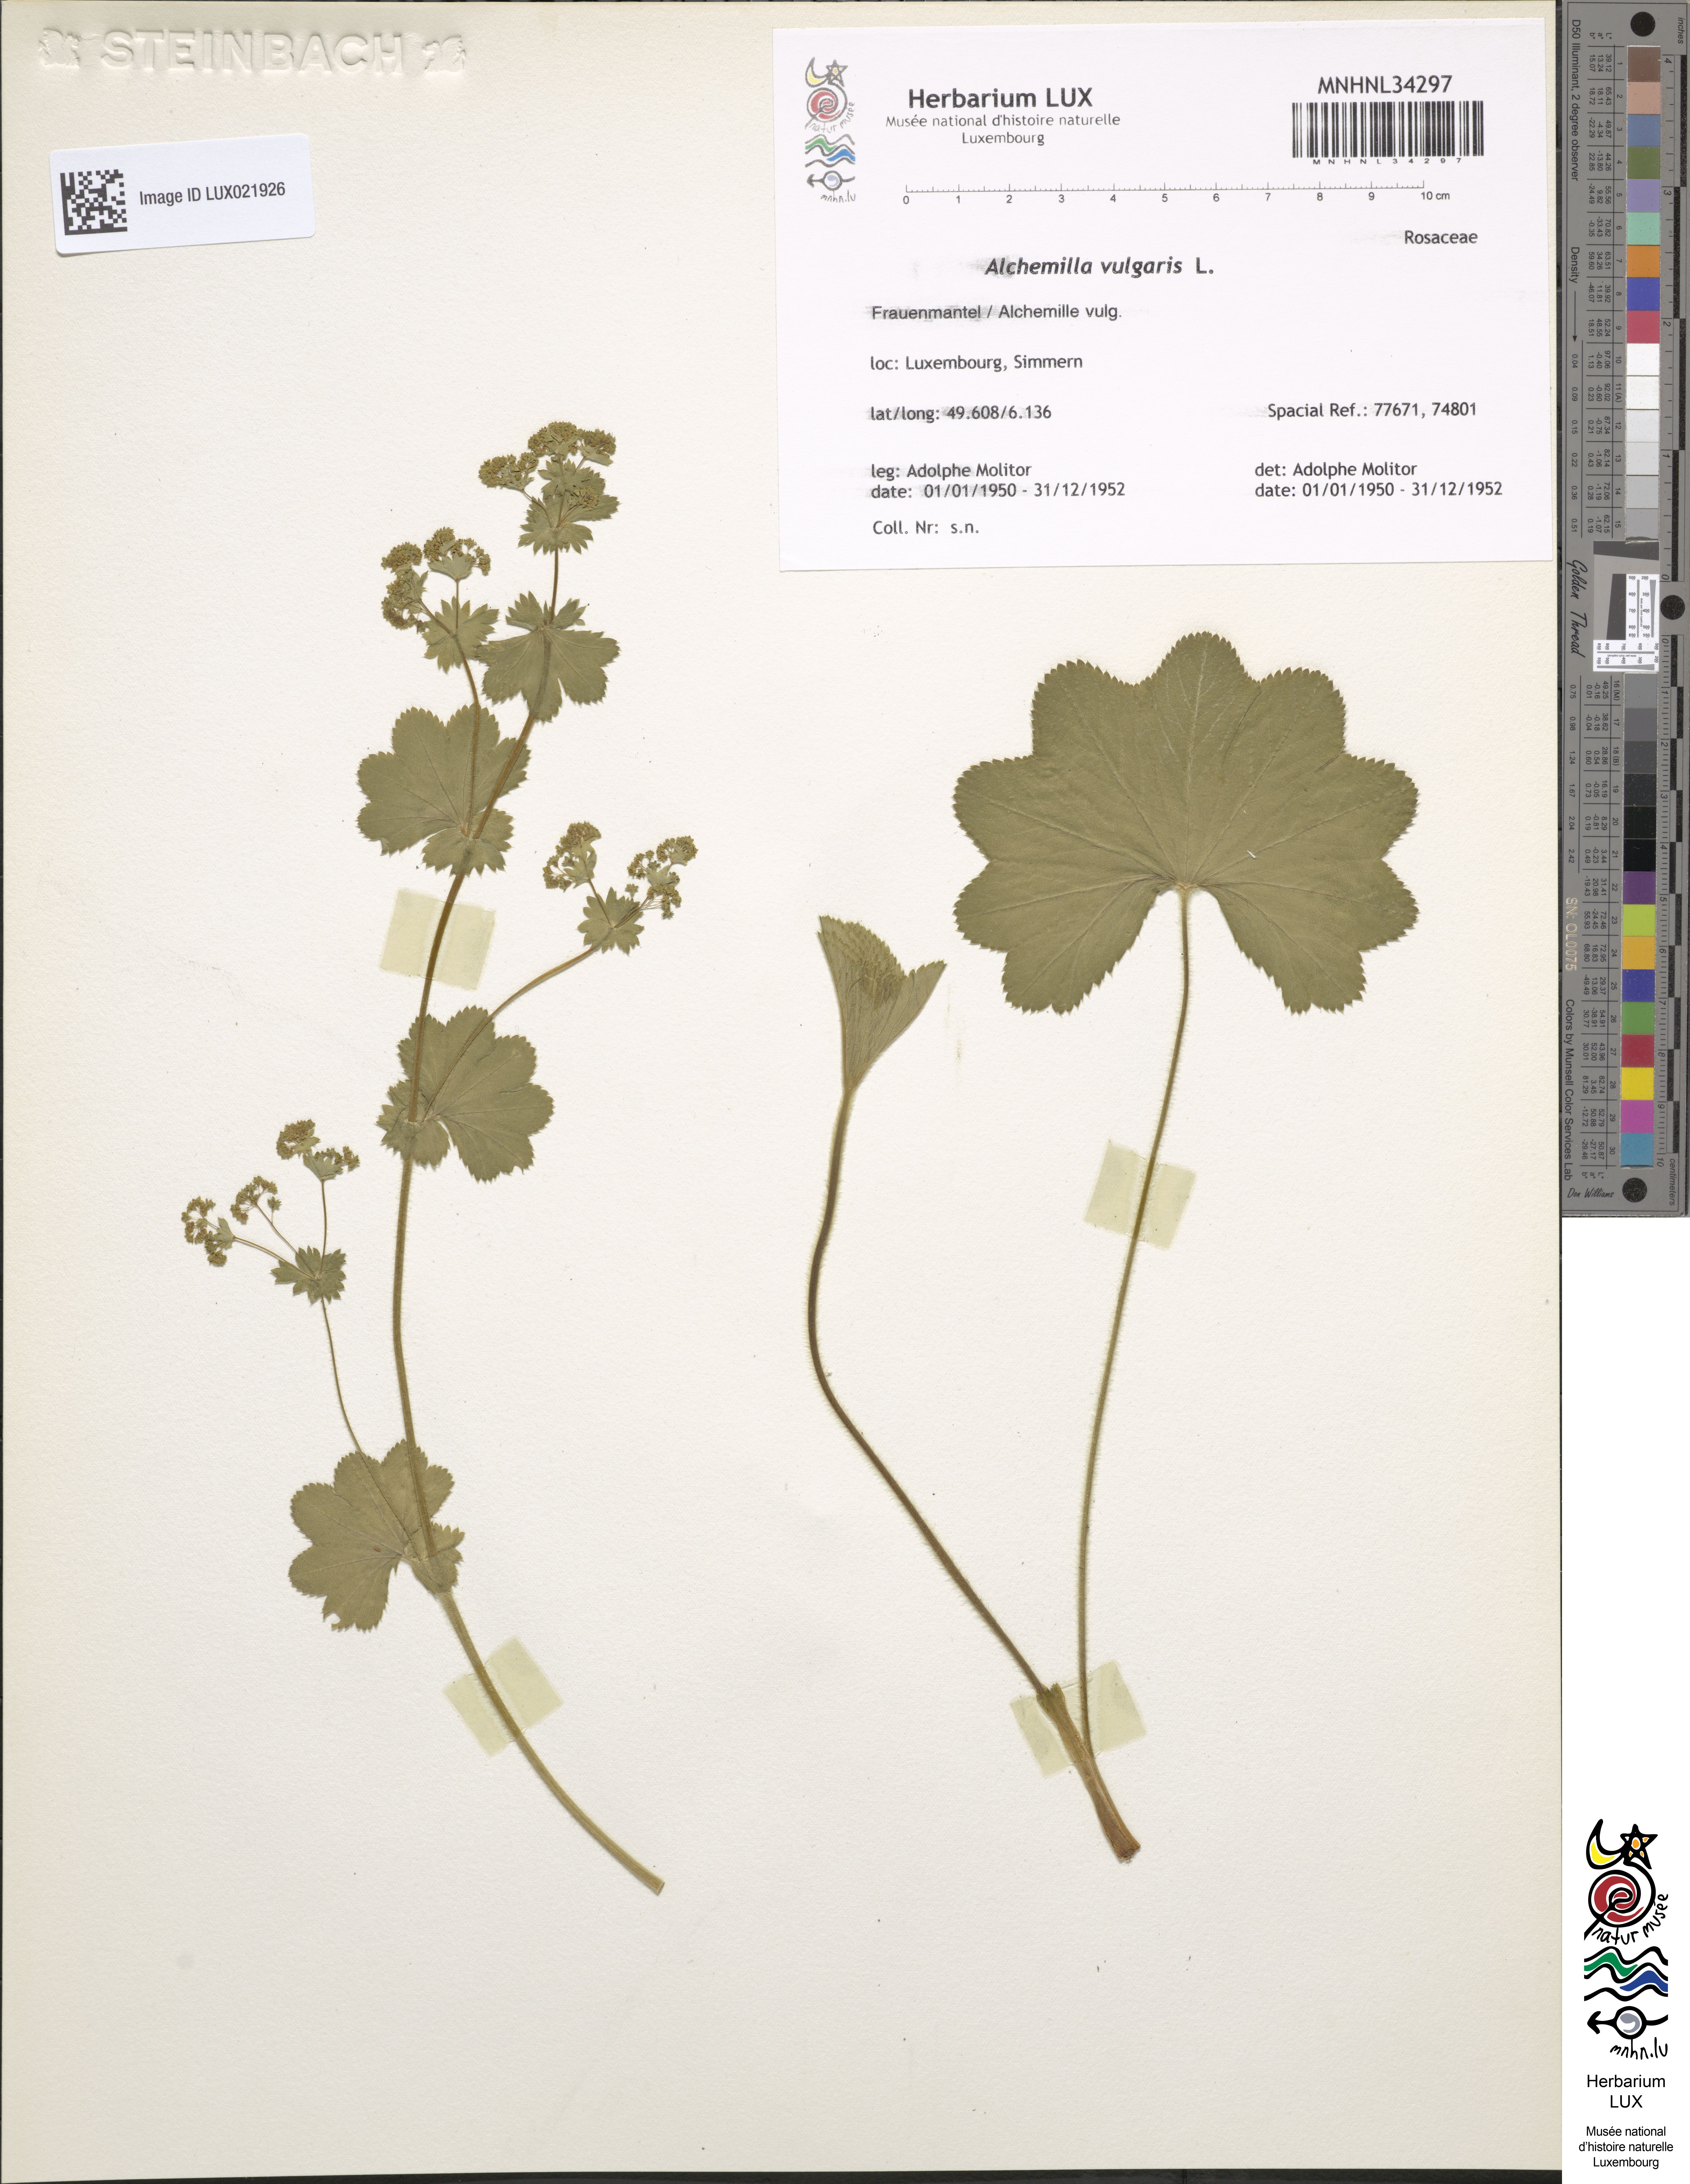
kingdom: Plantae
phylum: Tracheophyta
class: Magnoliopsida
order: Rosales
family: Rosaceae
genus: Alchemilla
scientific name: Alchemilla vulgaris
